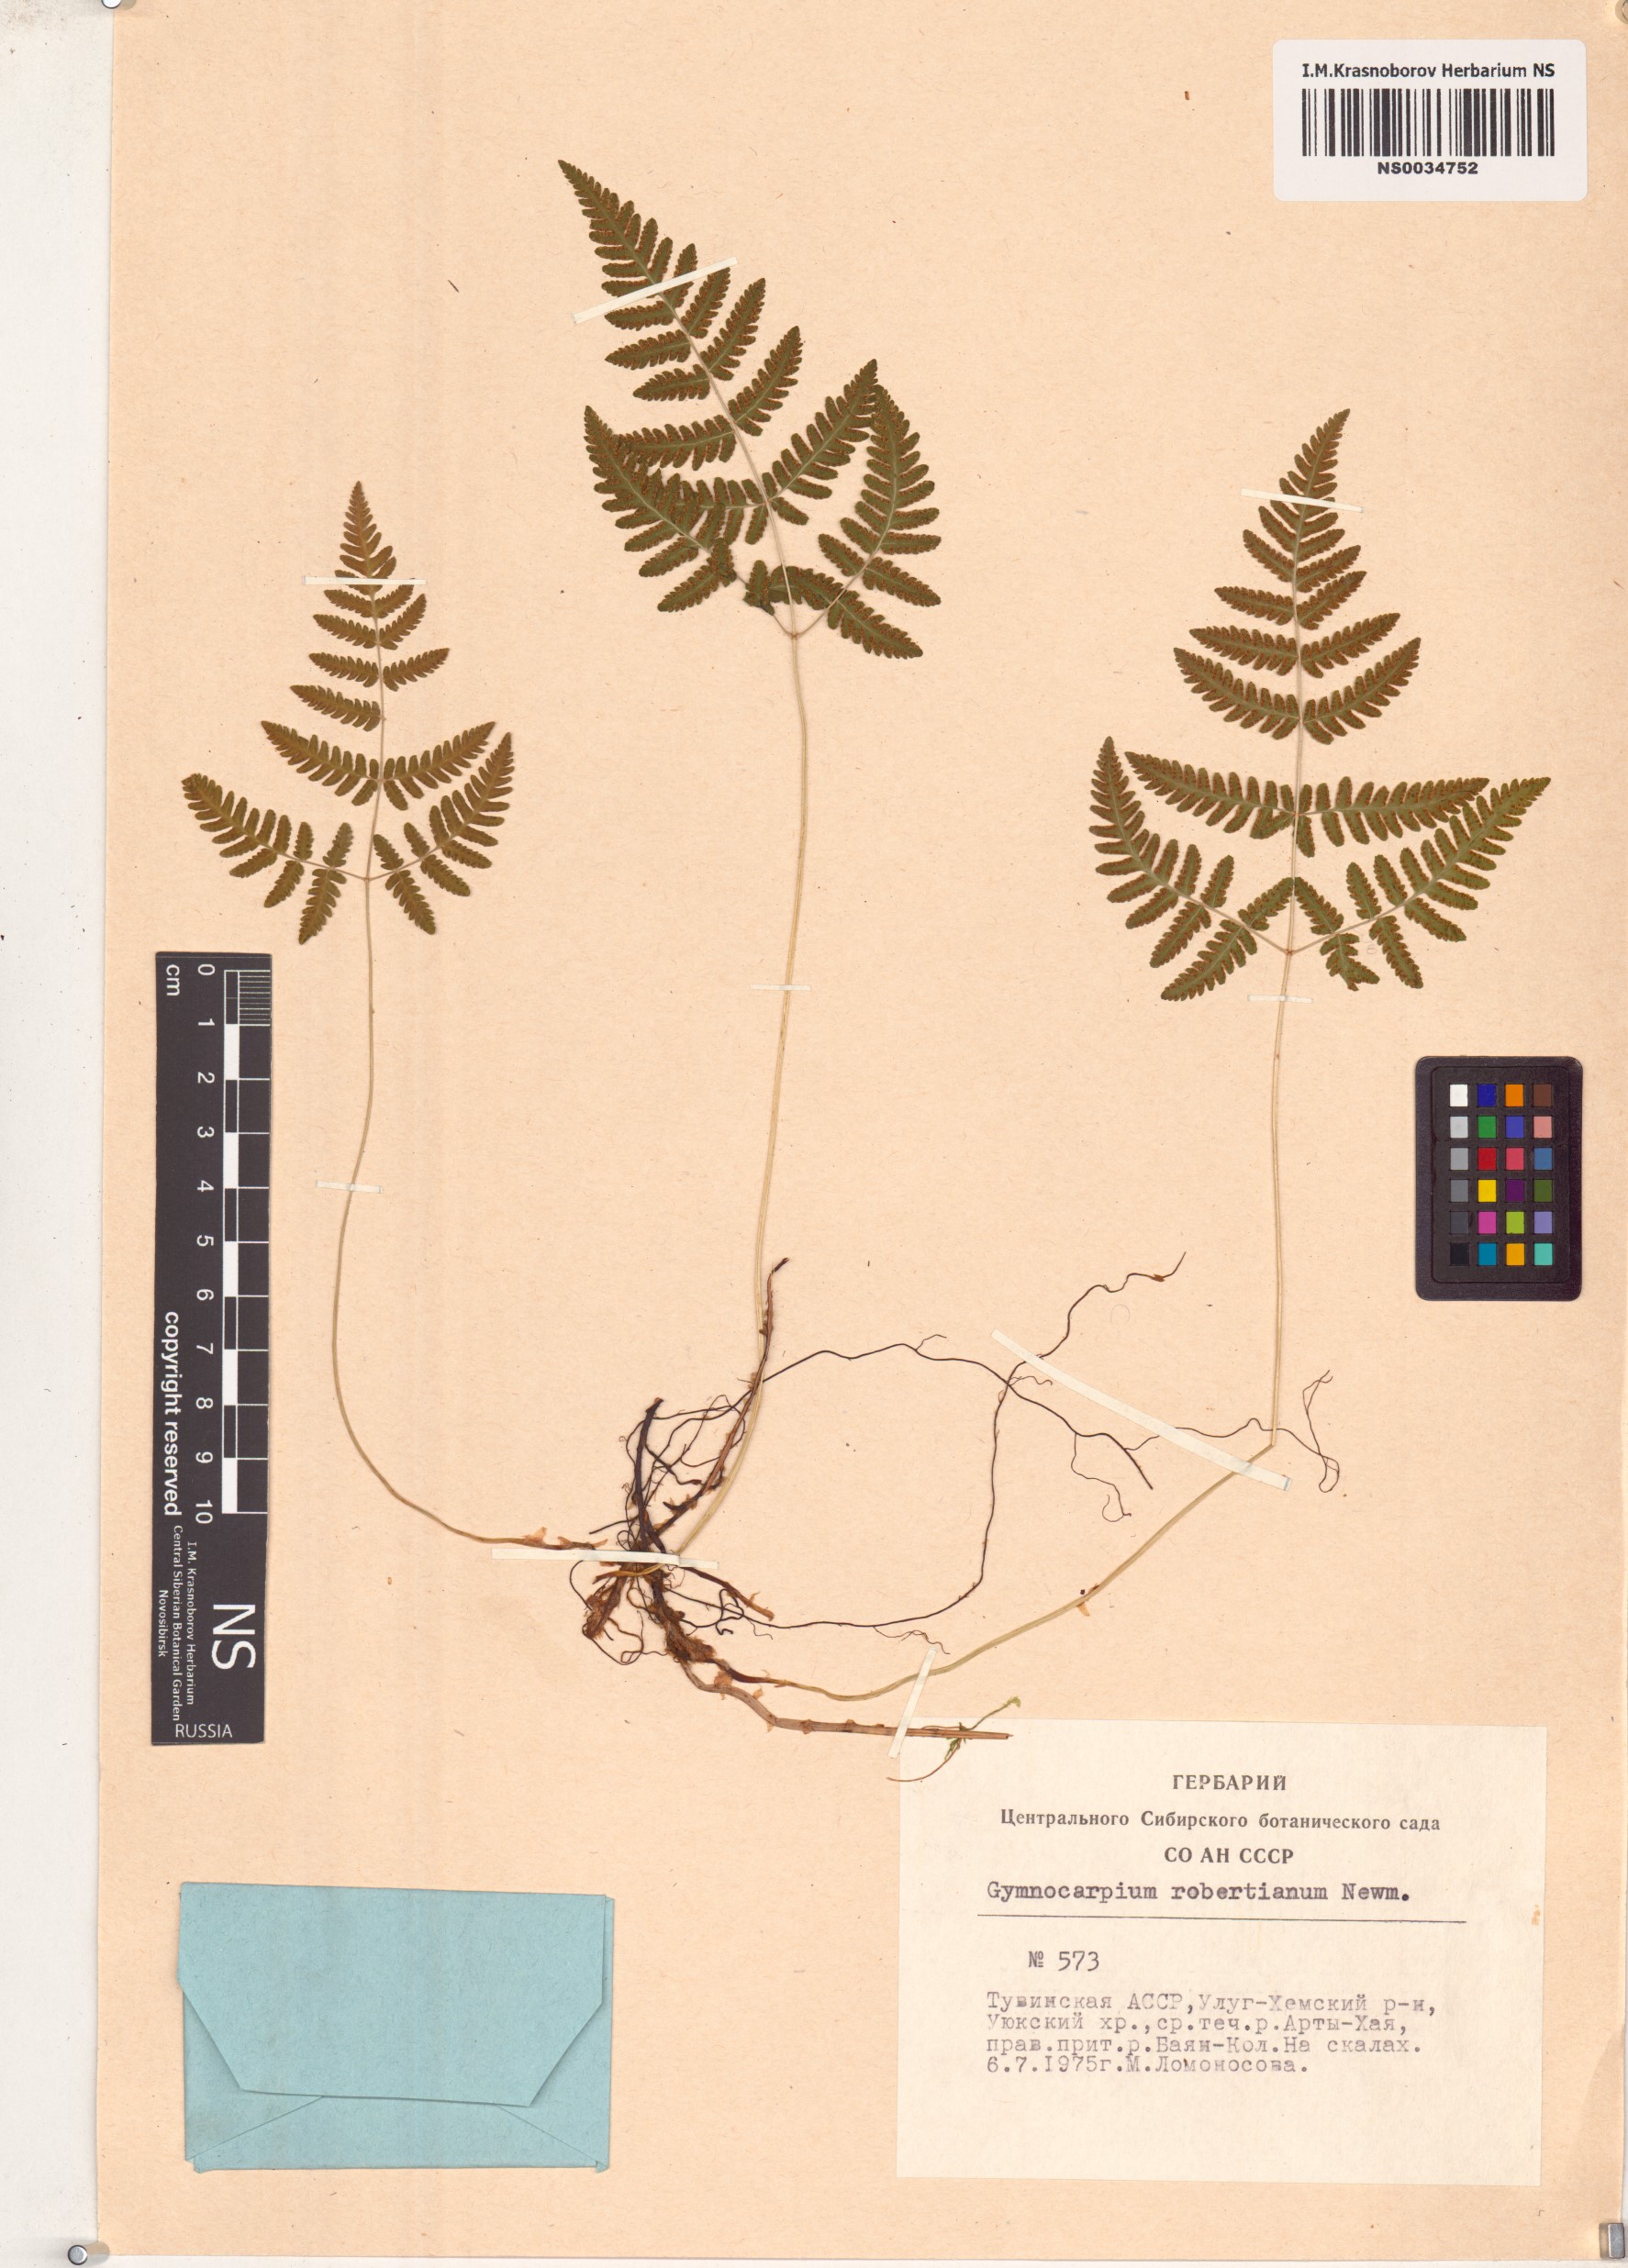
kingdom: Plantae
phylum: Tracheophyta
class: Polypodiopsida
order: Polypodiales
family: Cystopteridaceae
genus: Gymnocarpium
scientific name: Gymnocarpium robertianum
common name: Limestone fern
